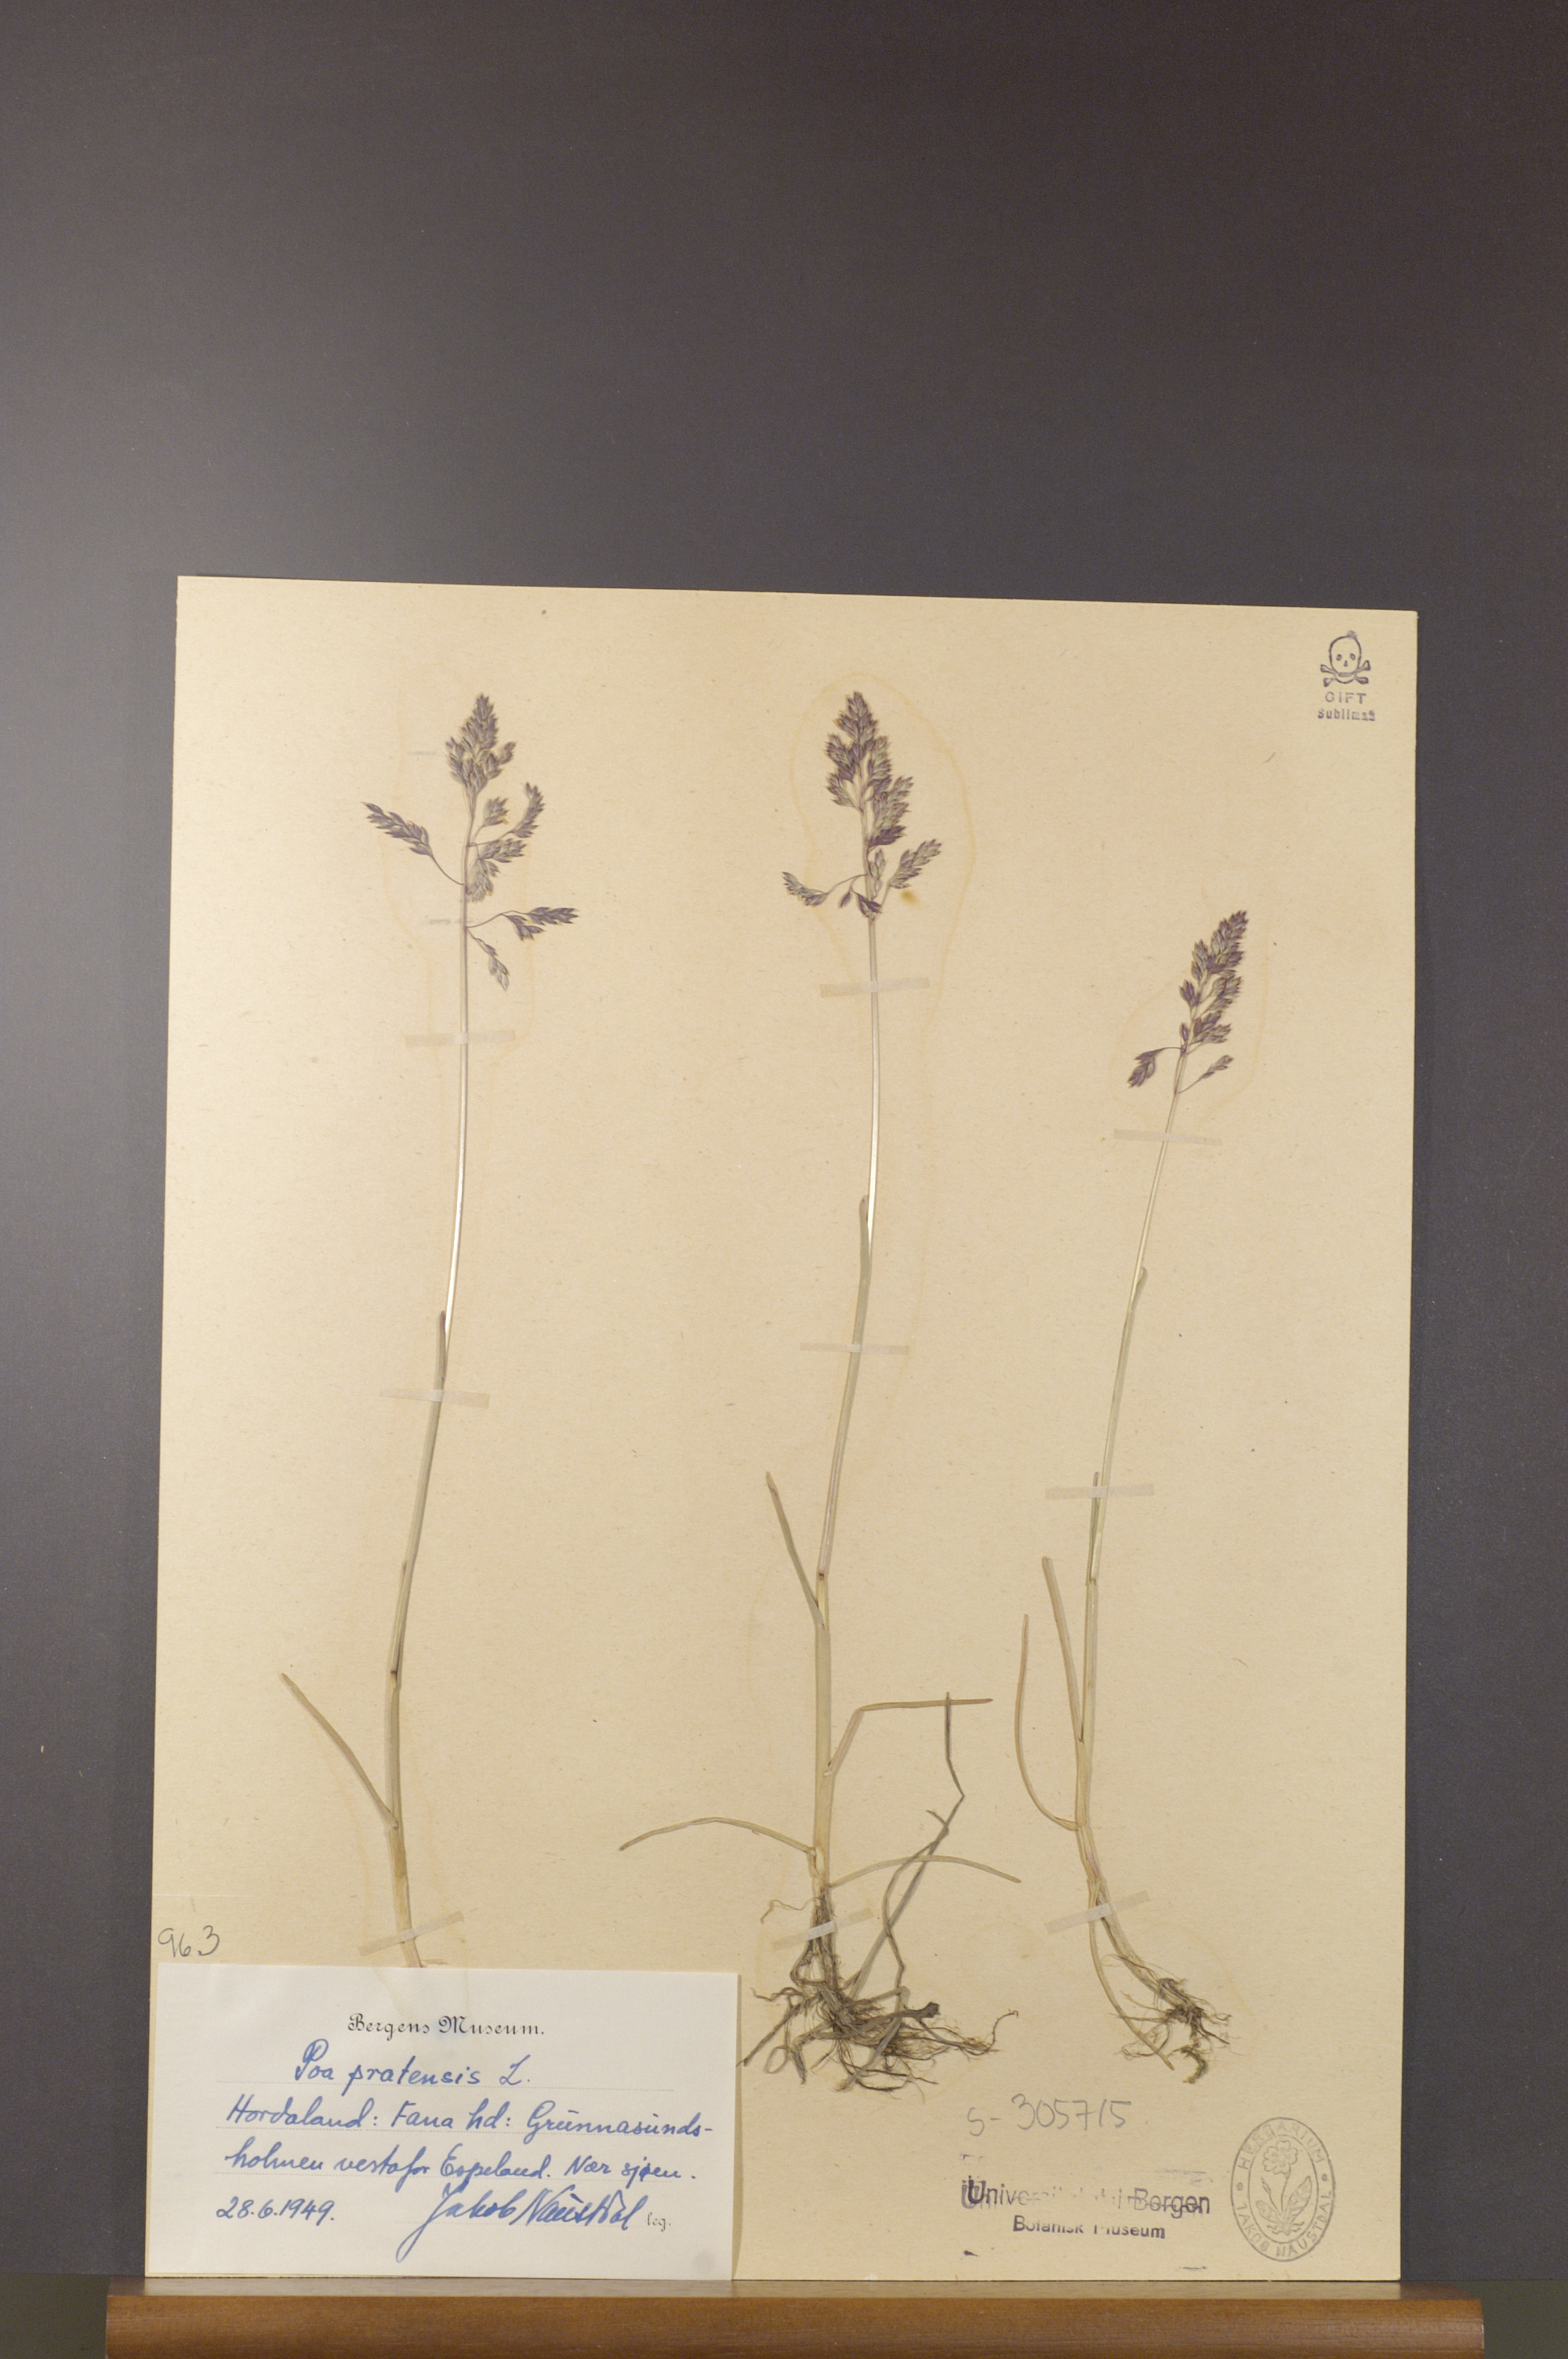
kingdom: Plantae
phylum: Tracheophyta
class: Liliopsida
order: Poales
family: Poaceae
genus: Poa
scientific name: Poa pratensis
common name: Kentucky bluegrass
